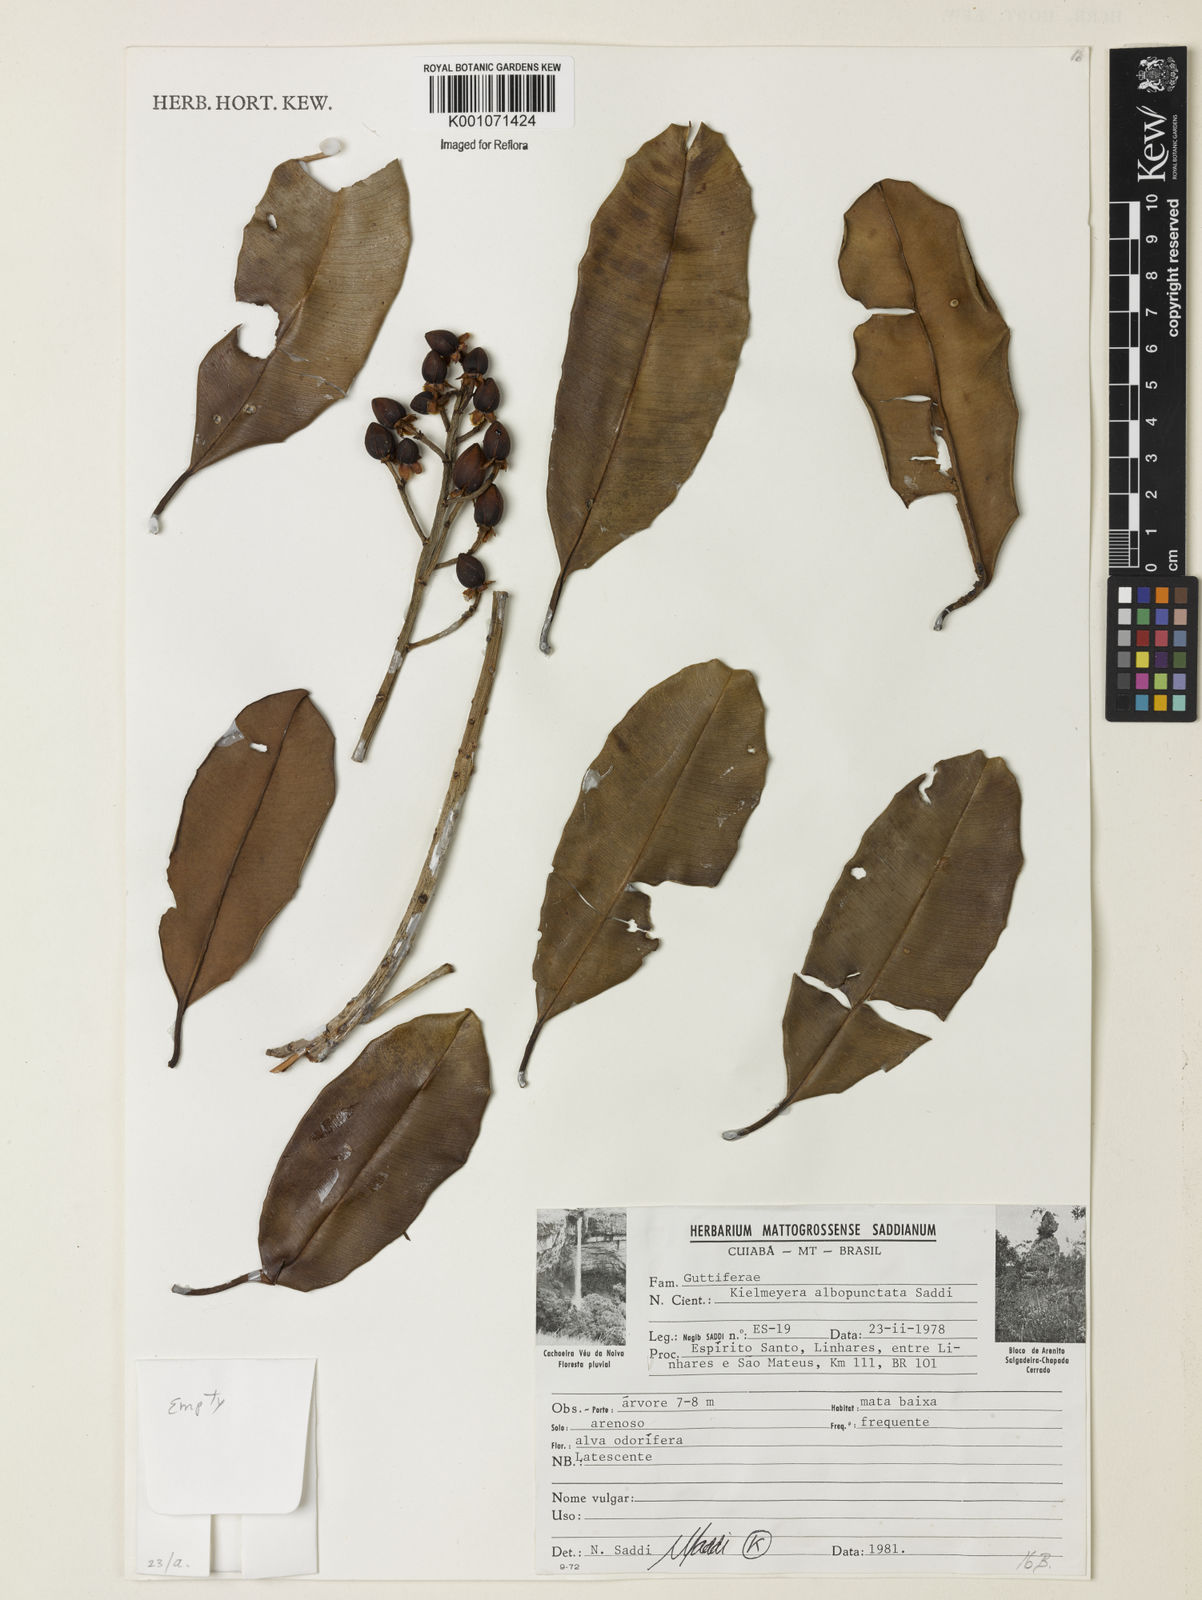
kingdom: Plantae
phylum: Tracheophyta
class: Magnoliopsida
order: Malpighiales
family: Calophyllaceae
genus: Kielmeyera
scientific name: Kielmeyera albopunctata
